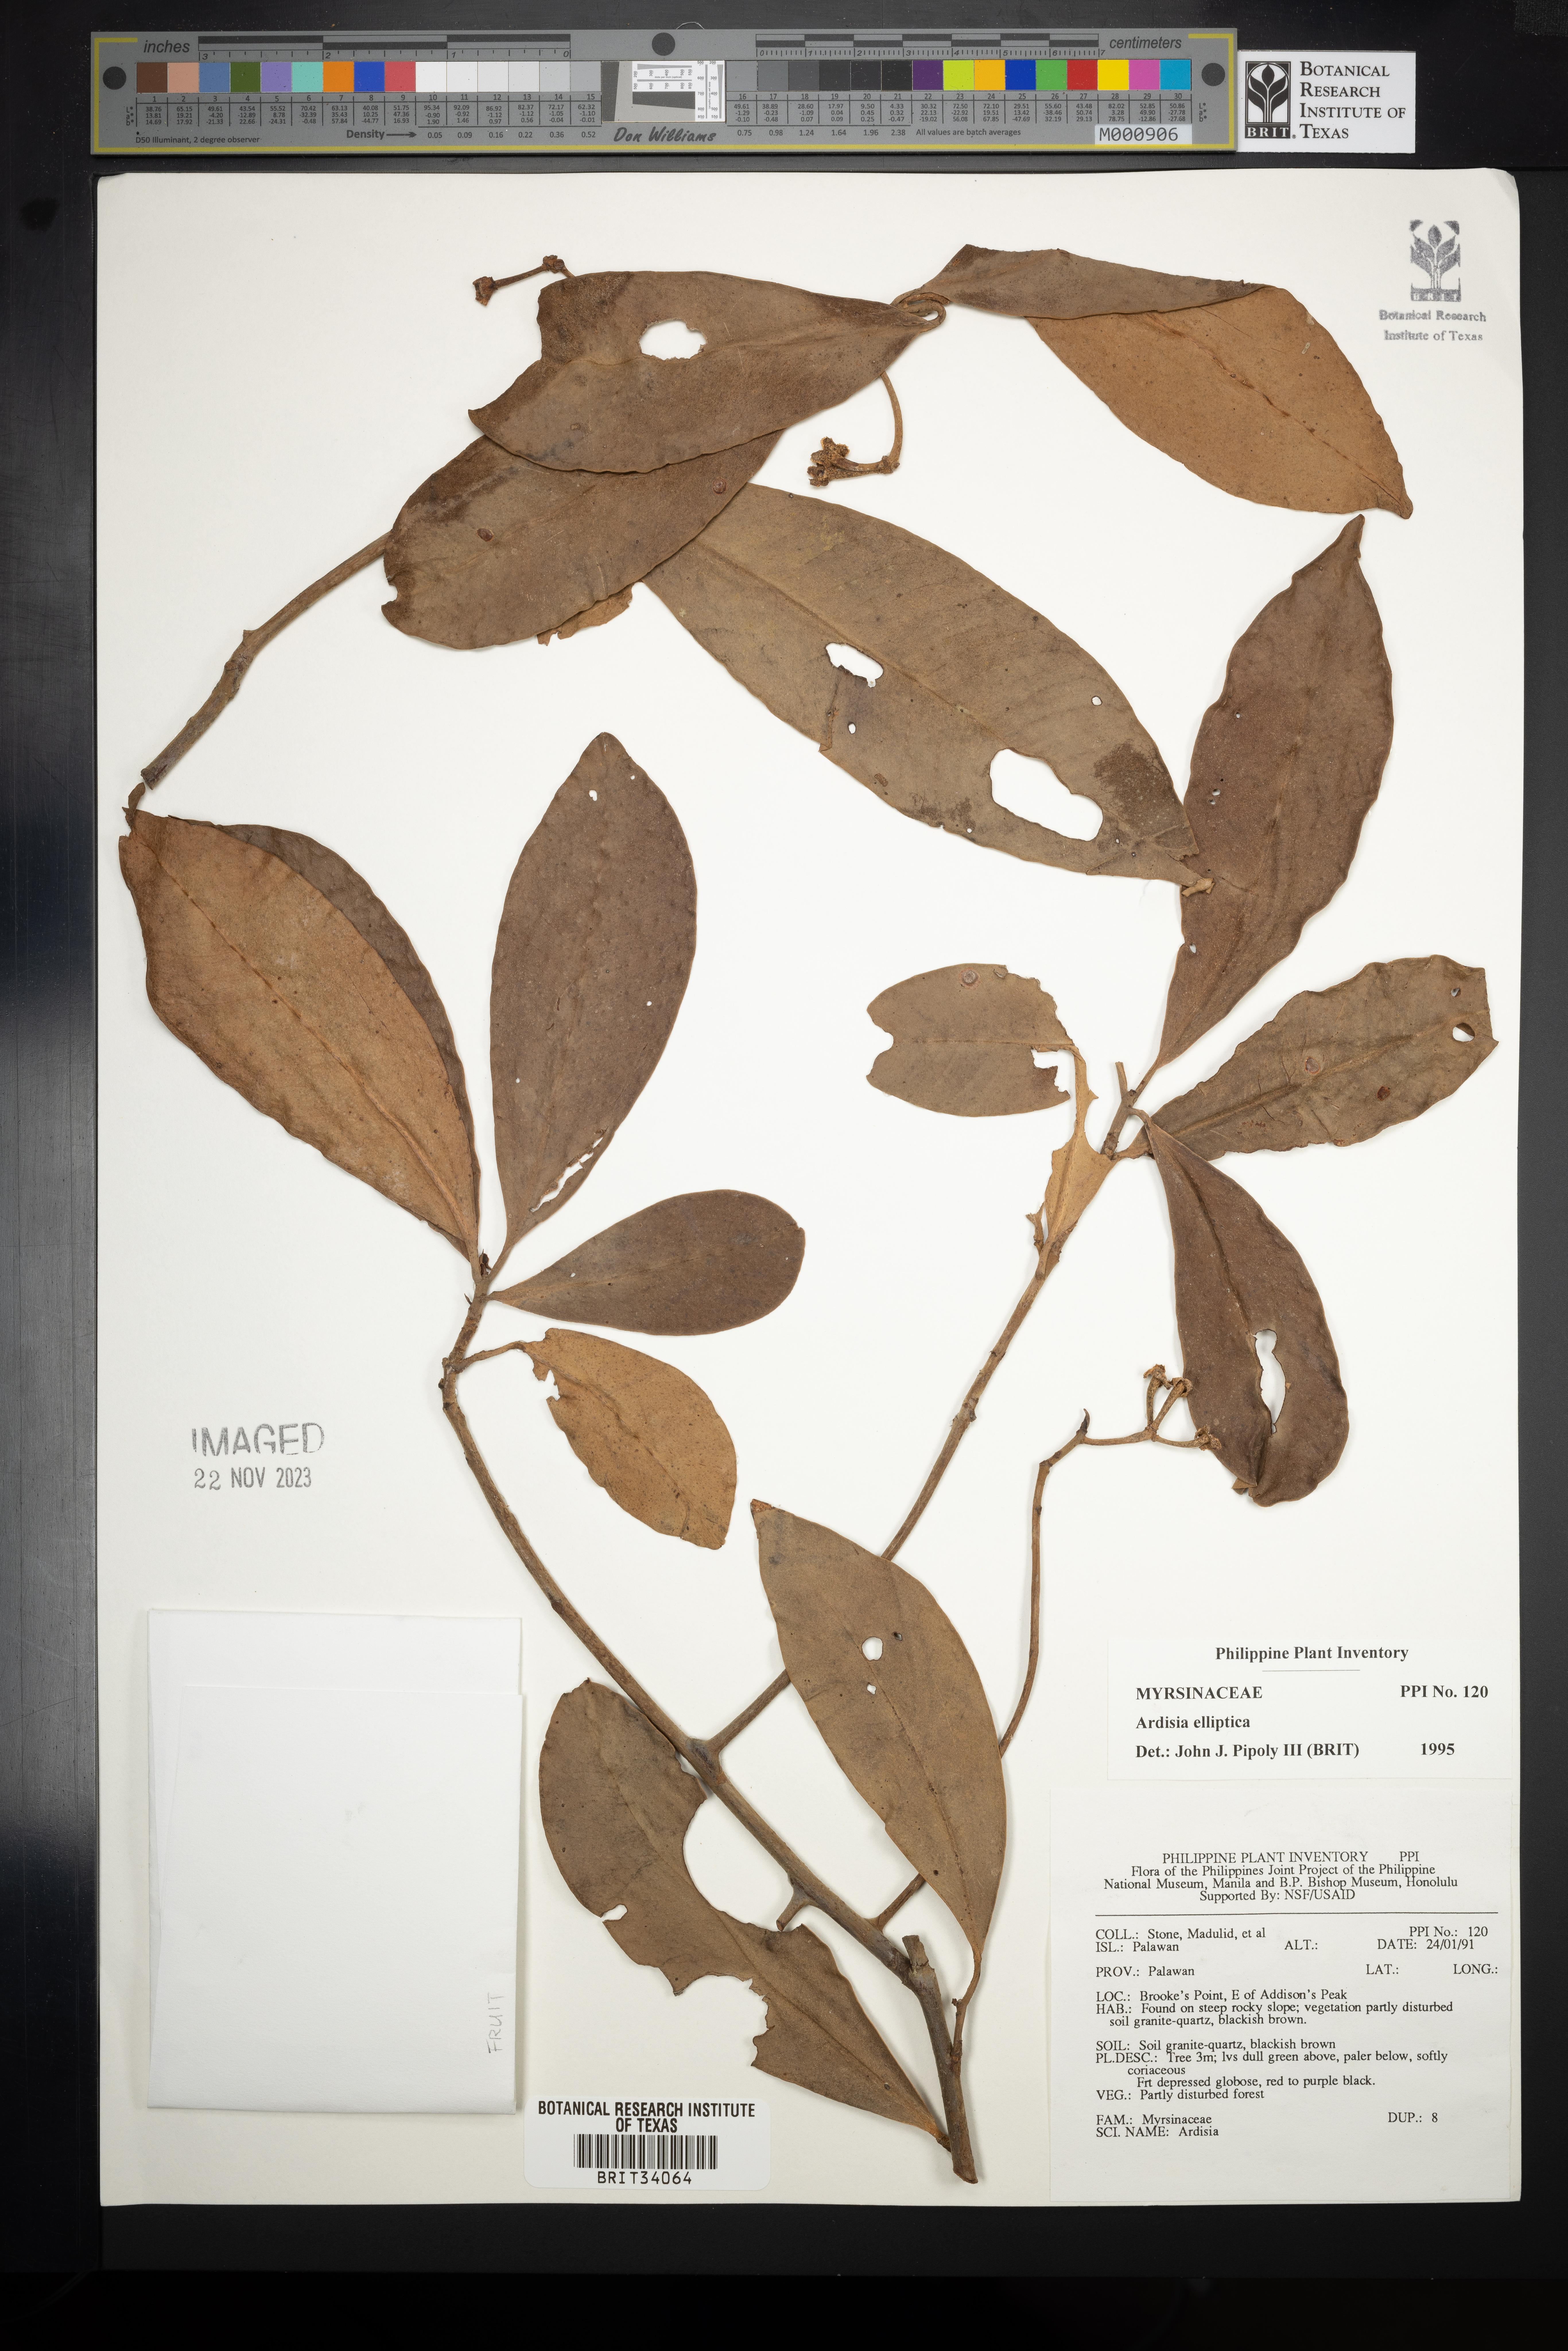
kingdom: Plantae
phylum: Tracheophyta
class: Magnoliopsida
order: Ericales
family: Primulaceae
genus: Ardisia
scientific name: Ardisia elliptica
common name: Shoebutton
